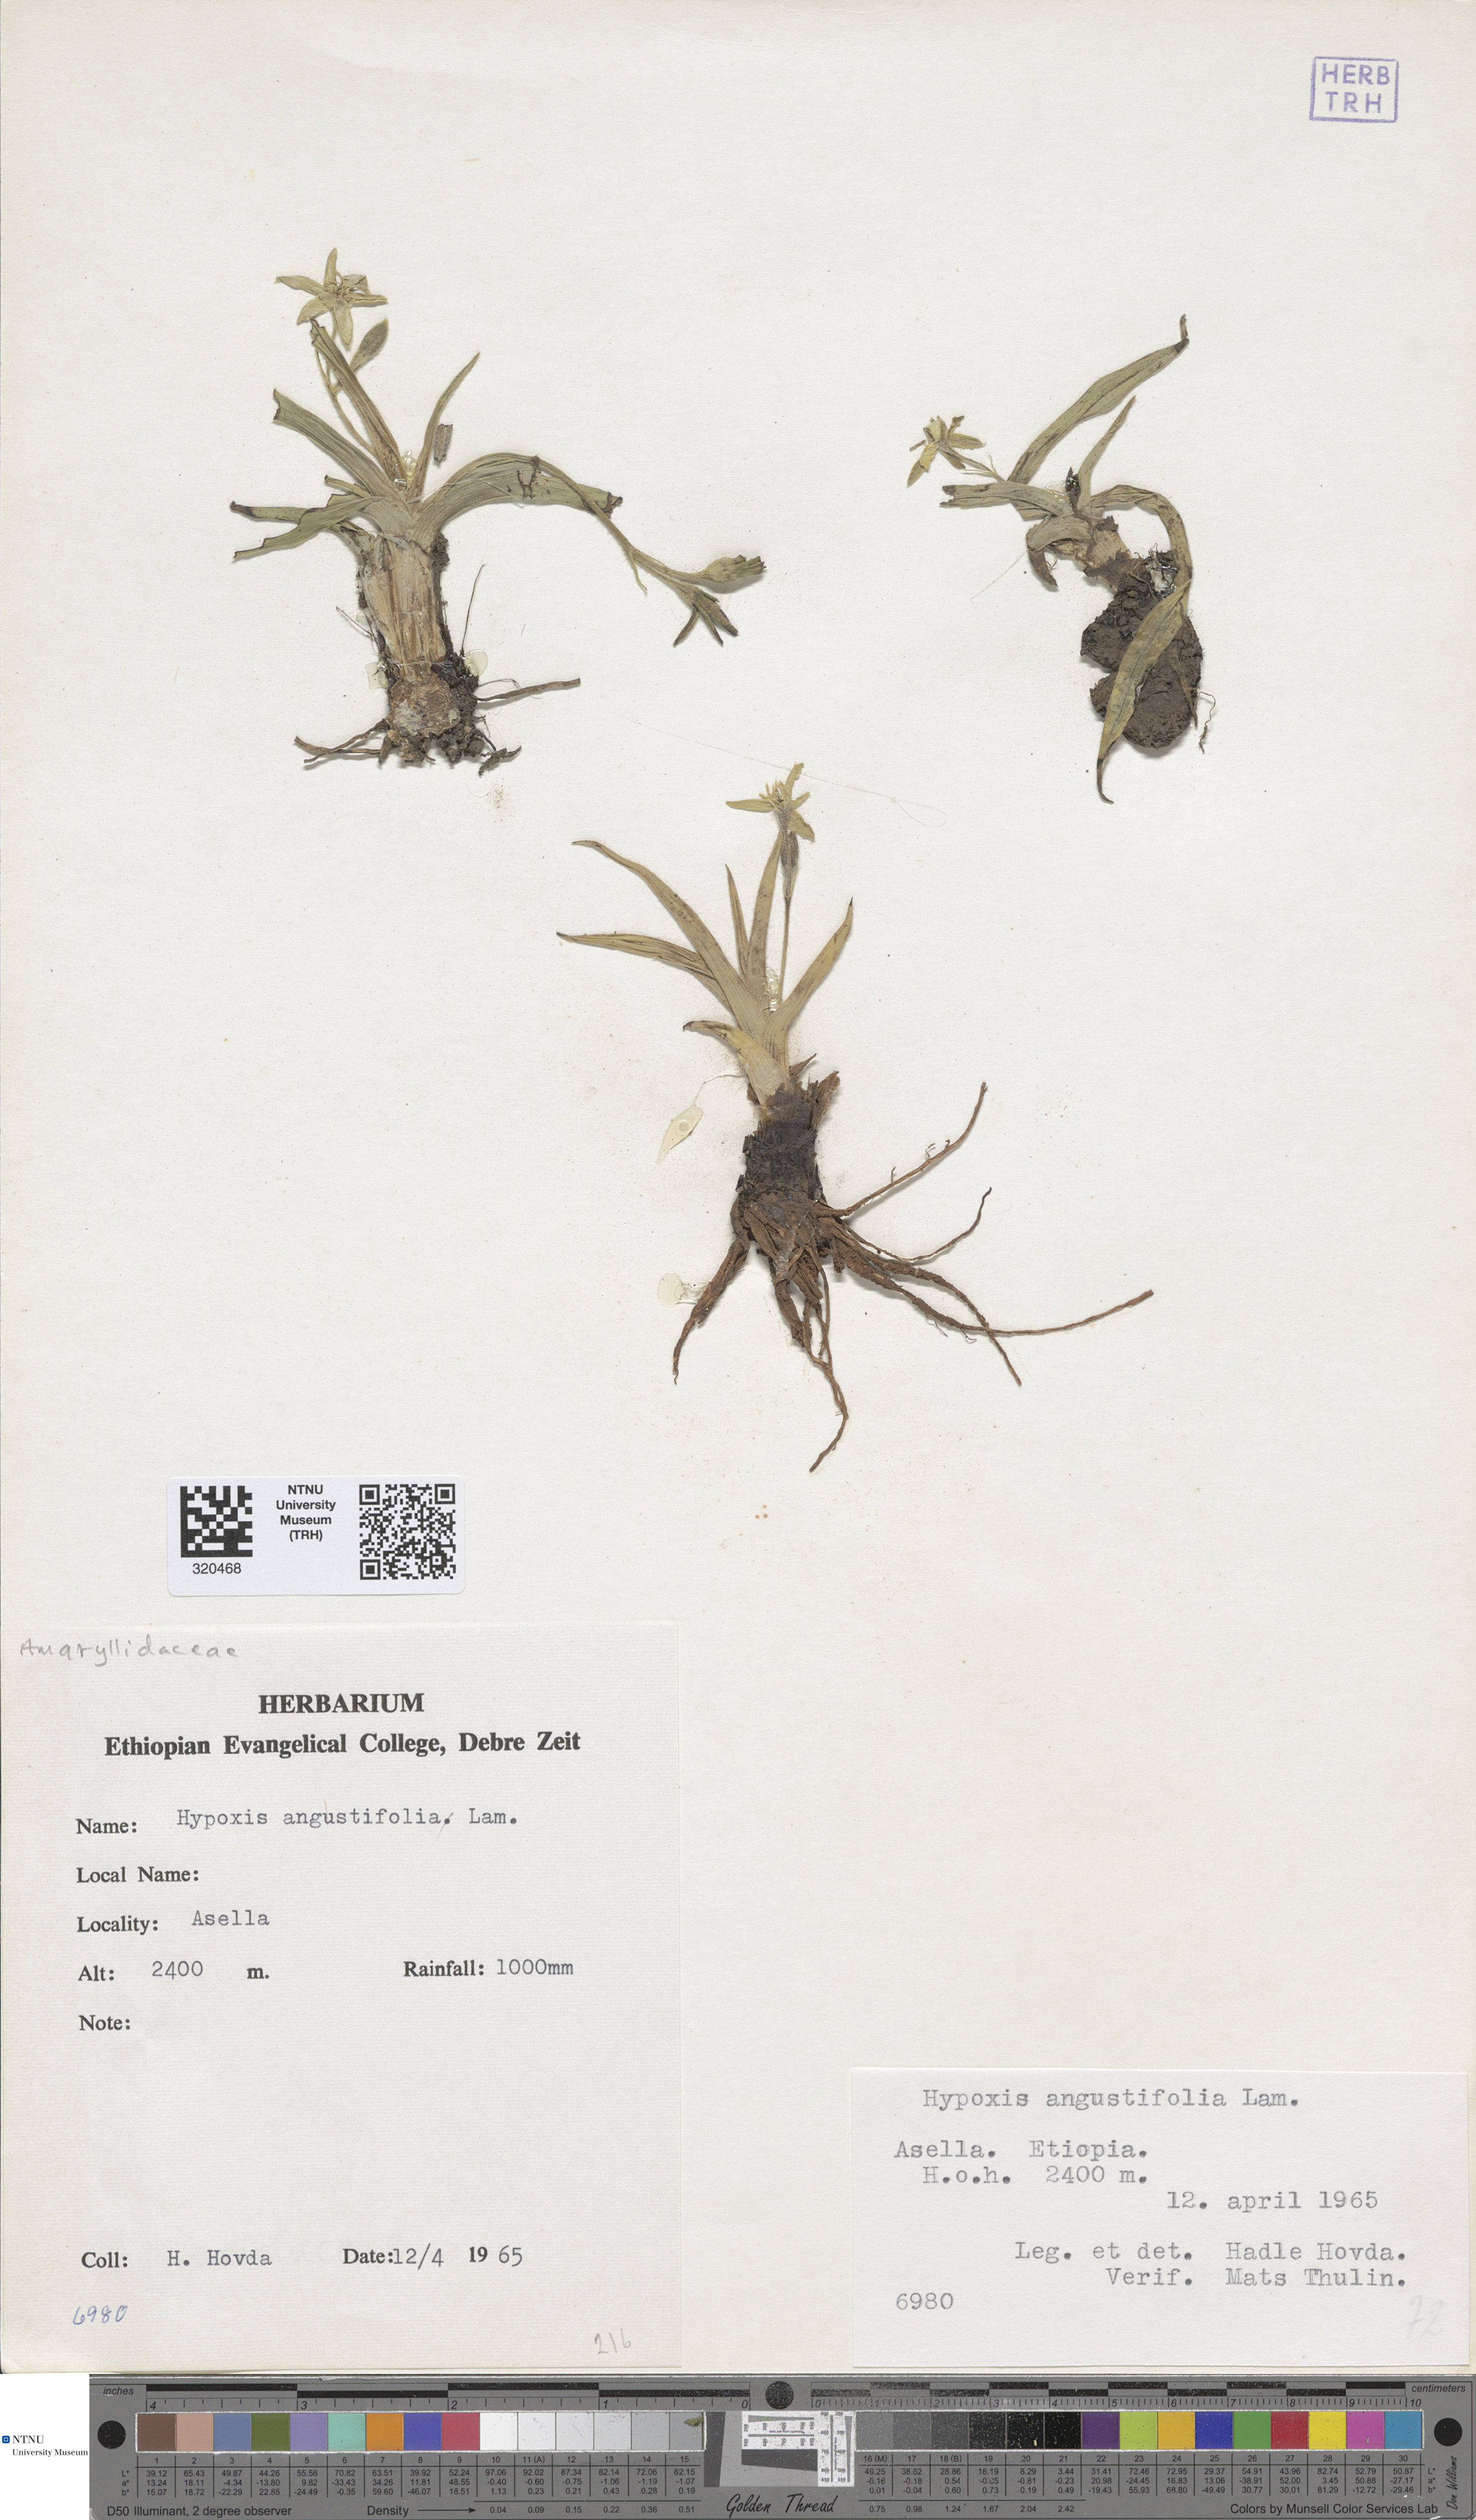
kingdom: Plantae
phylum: Tracheophyta
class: Liliopsida
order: Asparagales
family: Hypoxidaceae
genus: Hypoxis
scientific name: Hypoxis angustifolia
